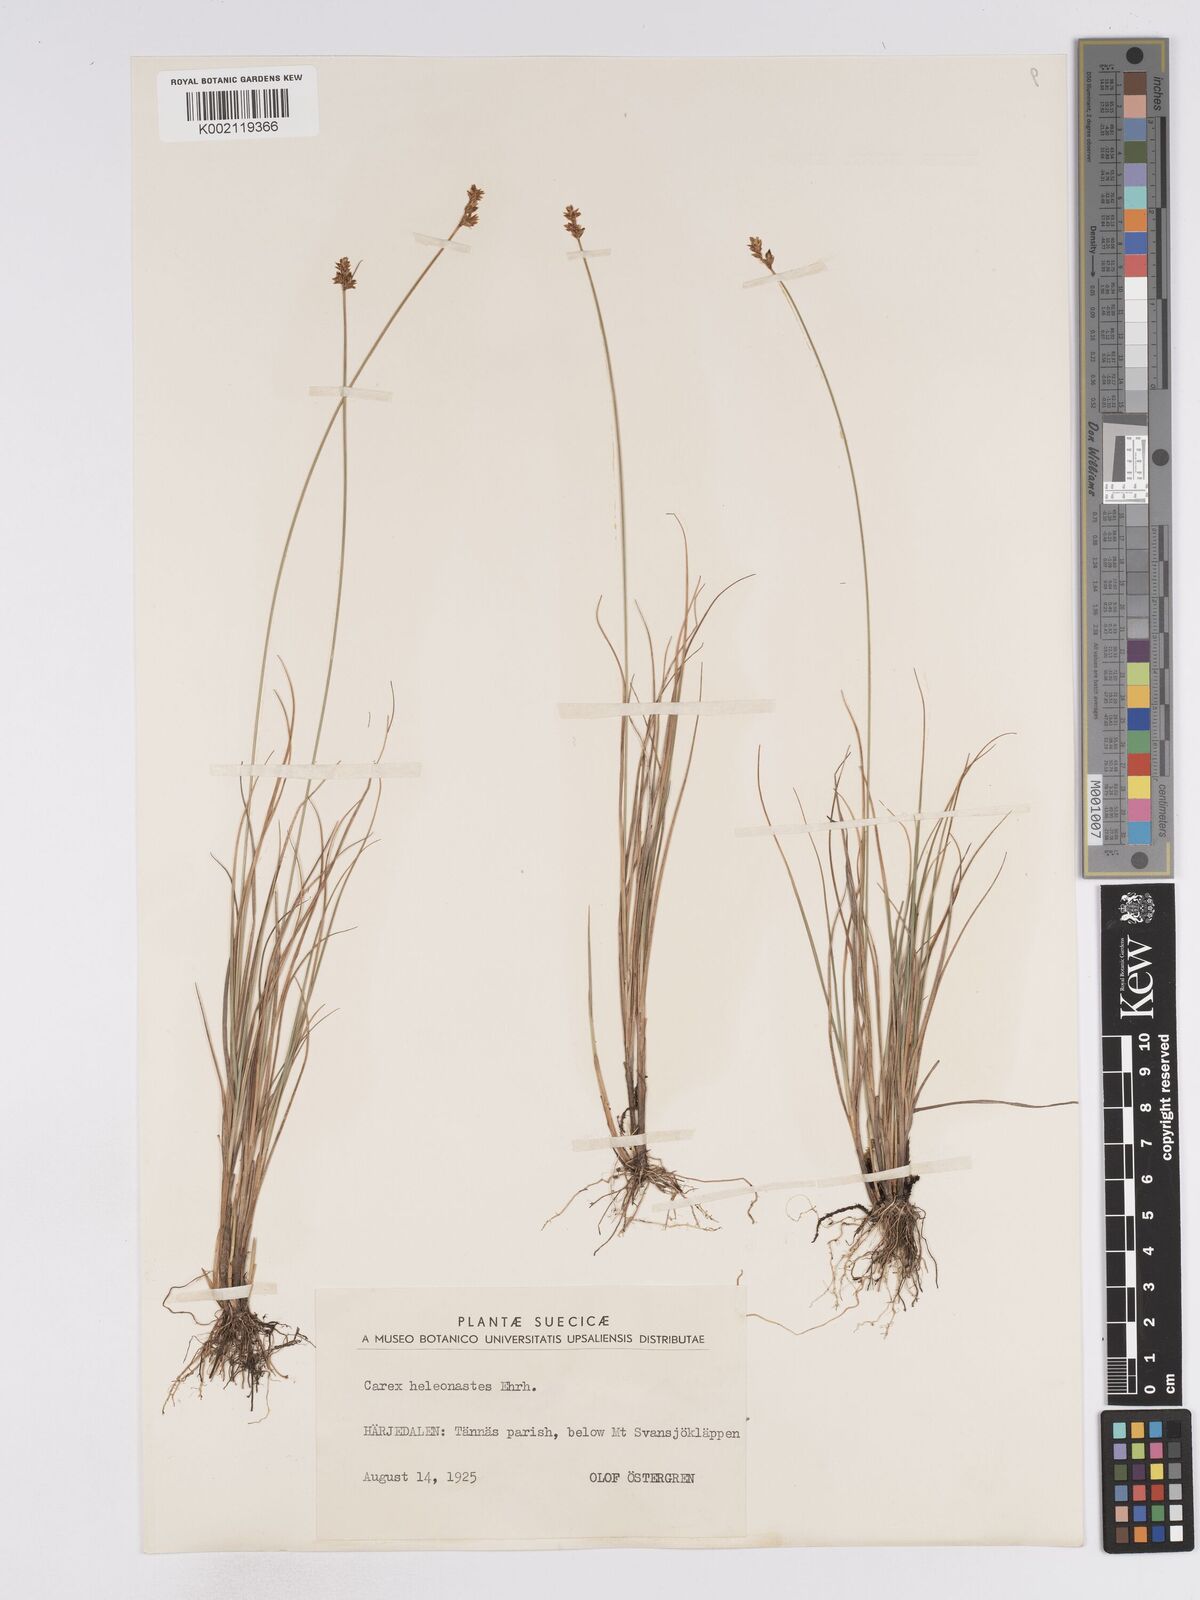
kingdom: Plantae
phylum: Tracheophyta
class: Liliopsida
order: Poales
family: Cyperaceae
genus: Carex
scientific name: Carex heleonastes
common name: Hudson bay sedge
